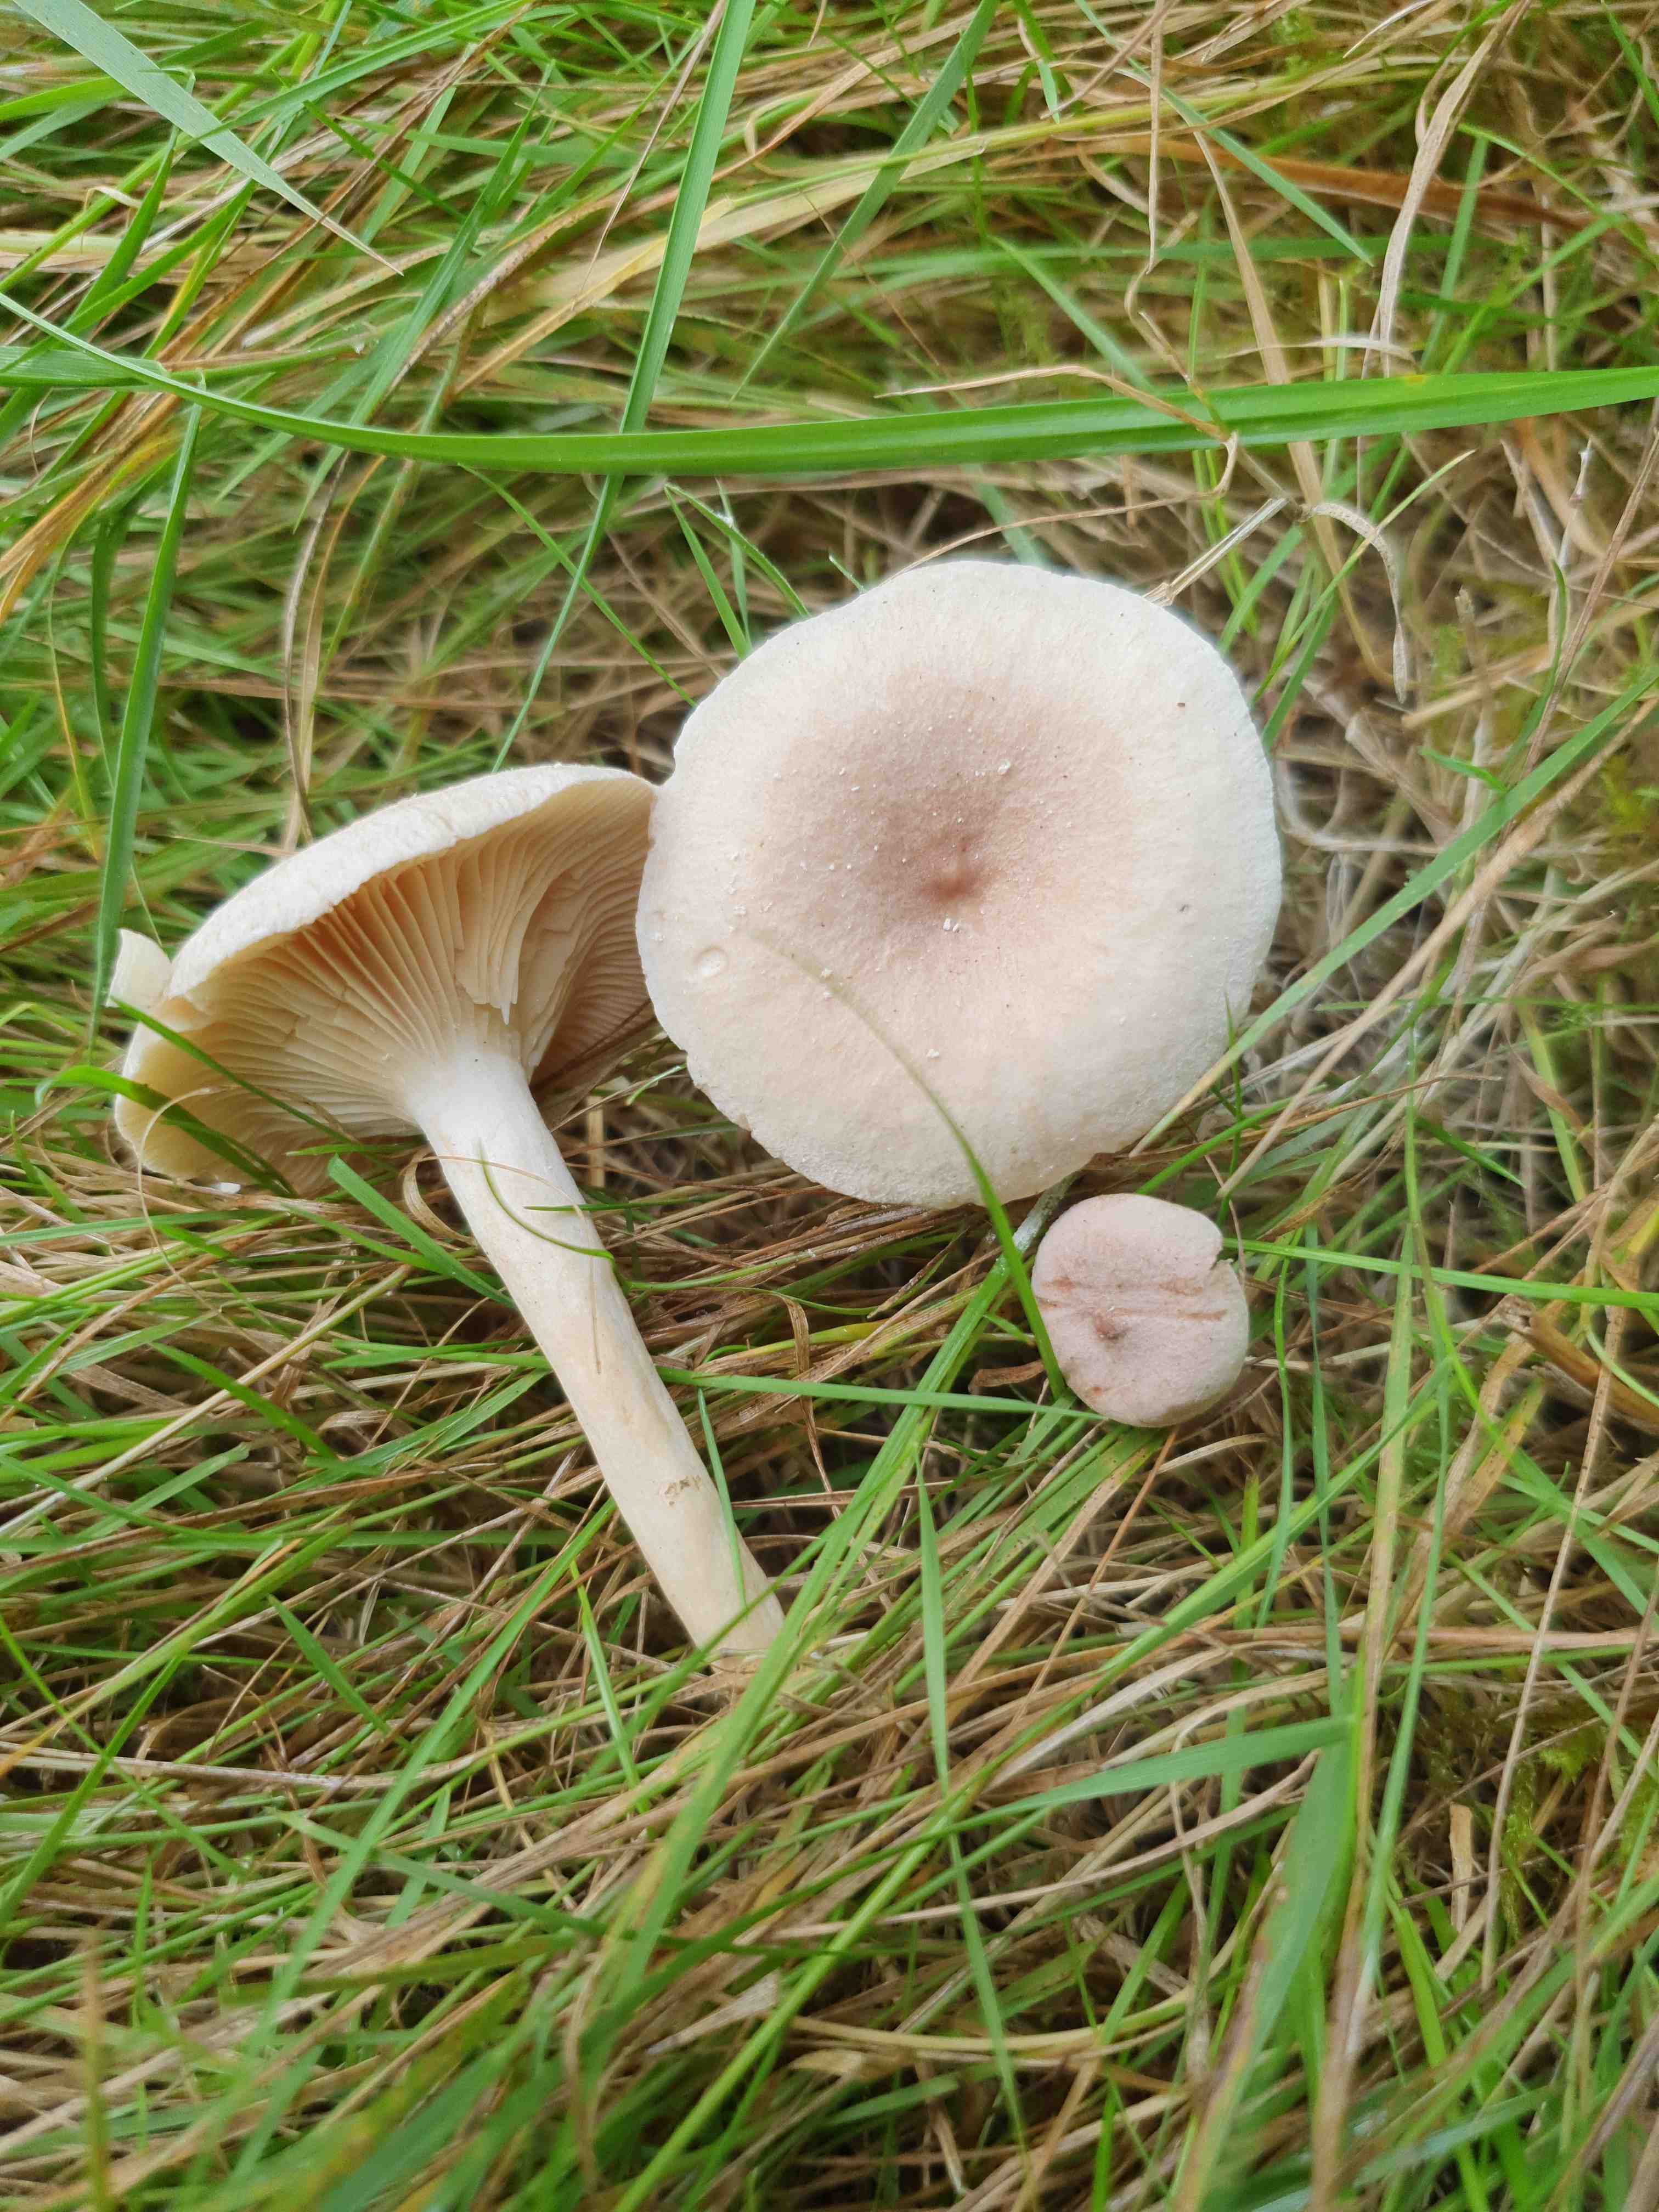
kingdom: Fungi
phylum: Basidiomycota
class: Agaricomycetes
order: Russulales
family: Russulaceae
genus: Lactarius
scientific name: Lactarius glyciosmus
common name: kokos-mælkehat
